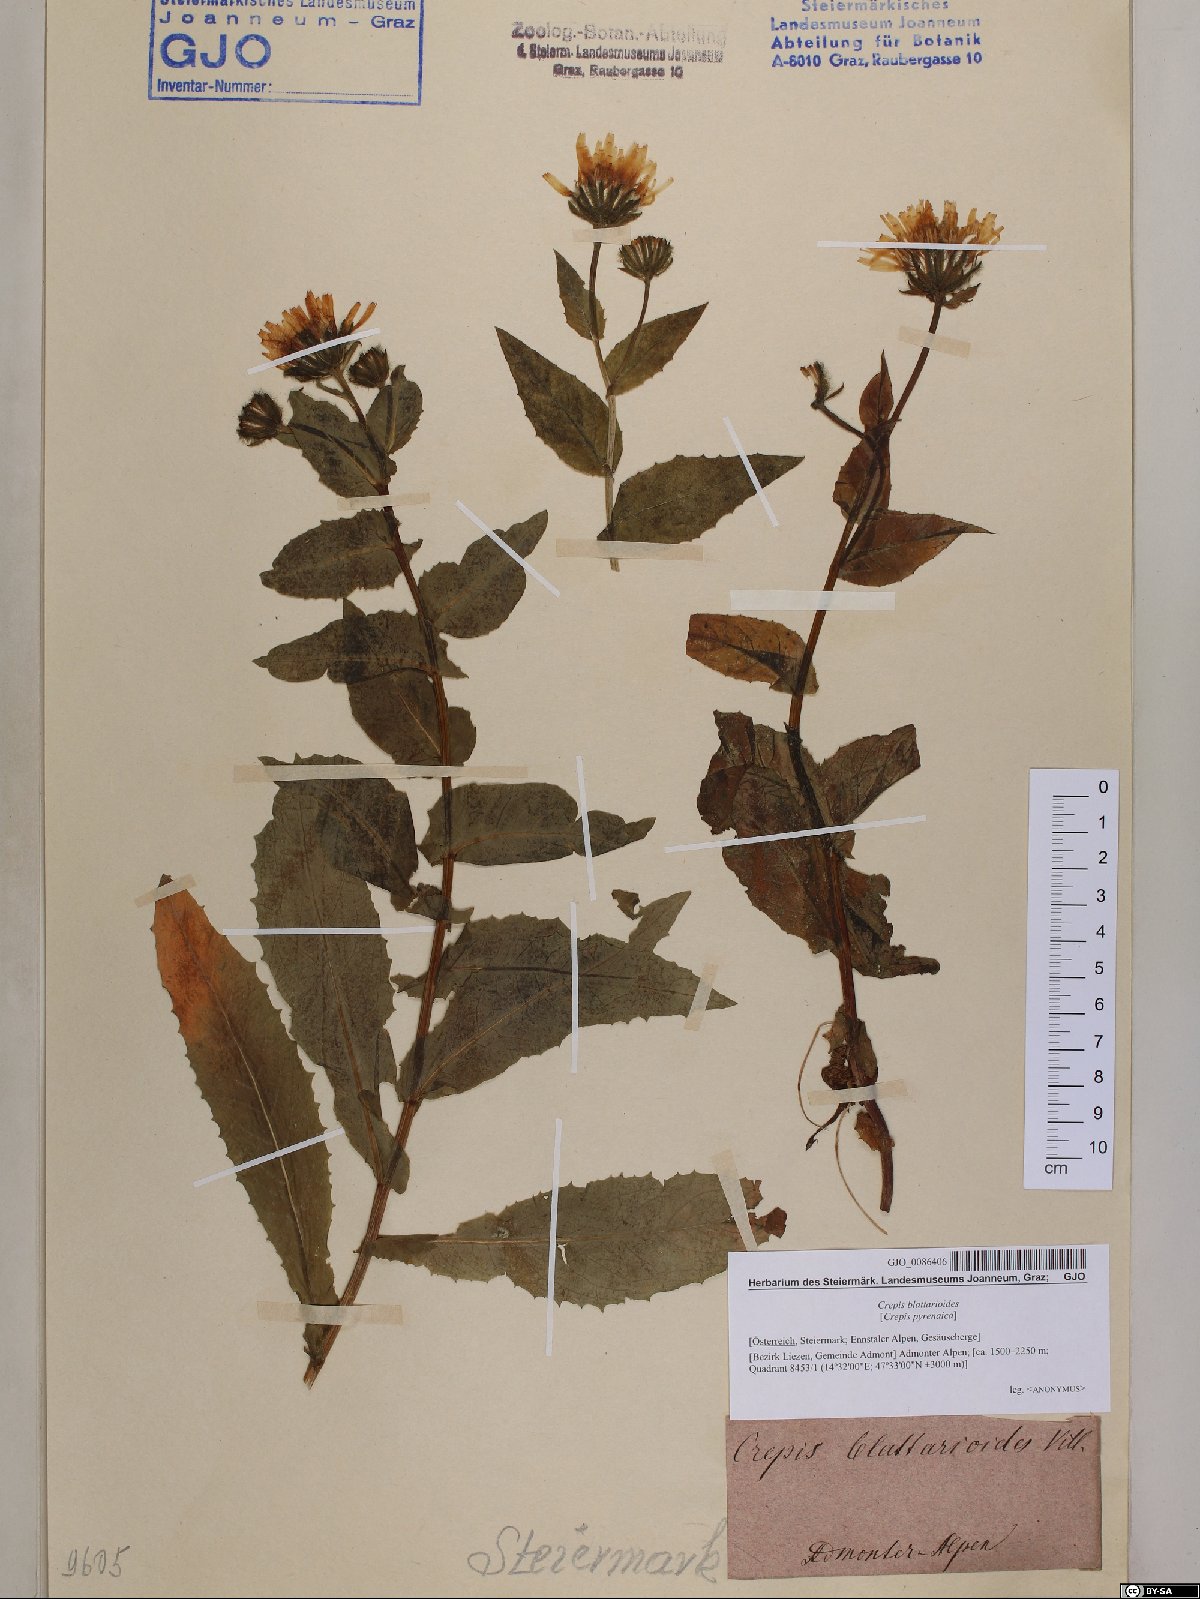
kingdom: Plantae
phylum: Tracheophyta
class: Magnoliopsida
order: Asterales
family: Asteraceae
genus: Crepis
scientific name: Crepis blattarioides
